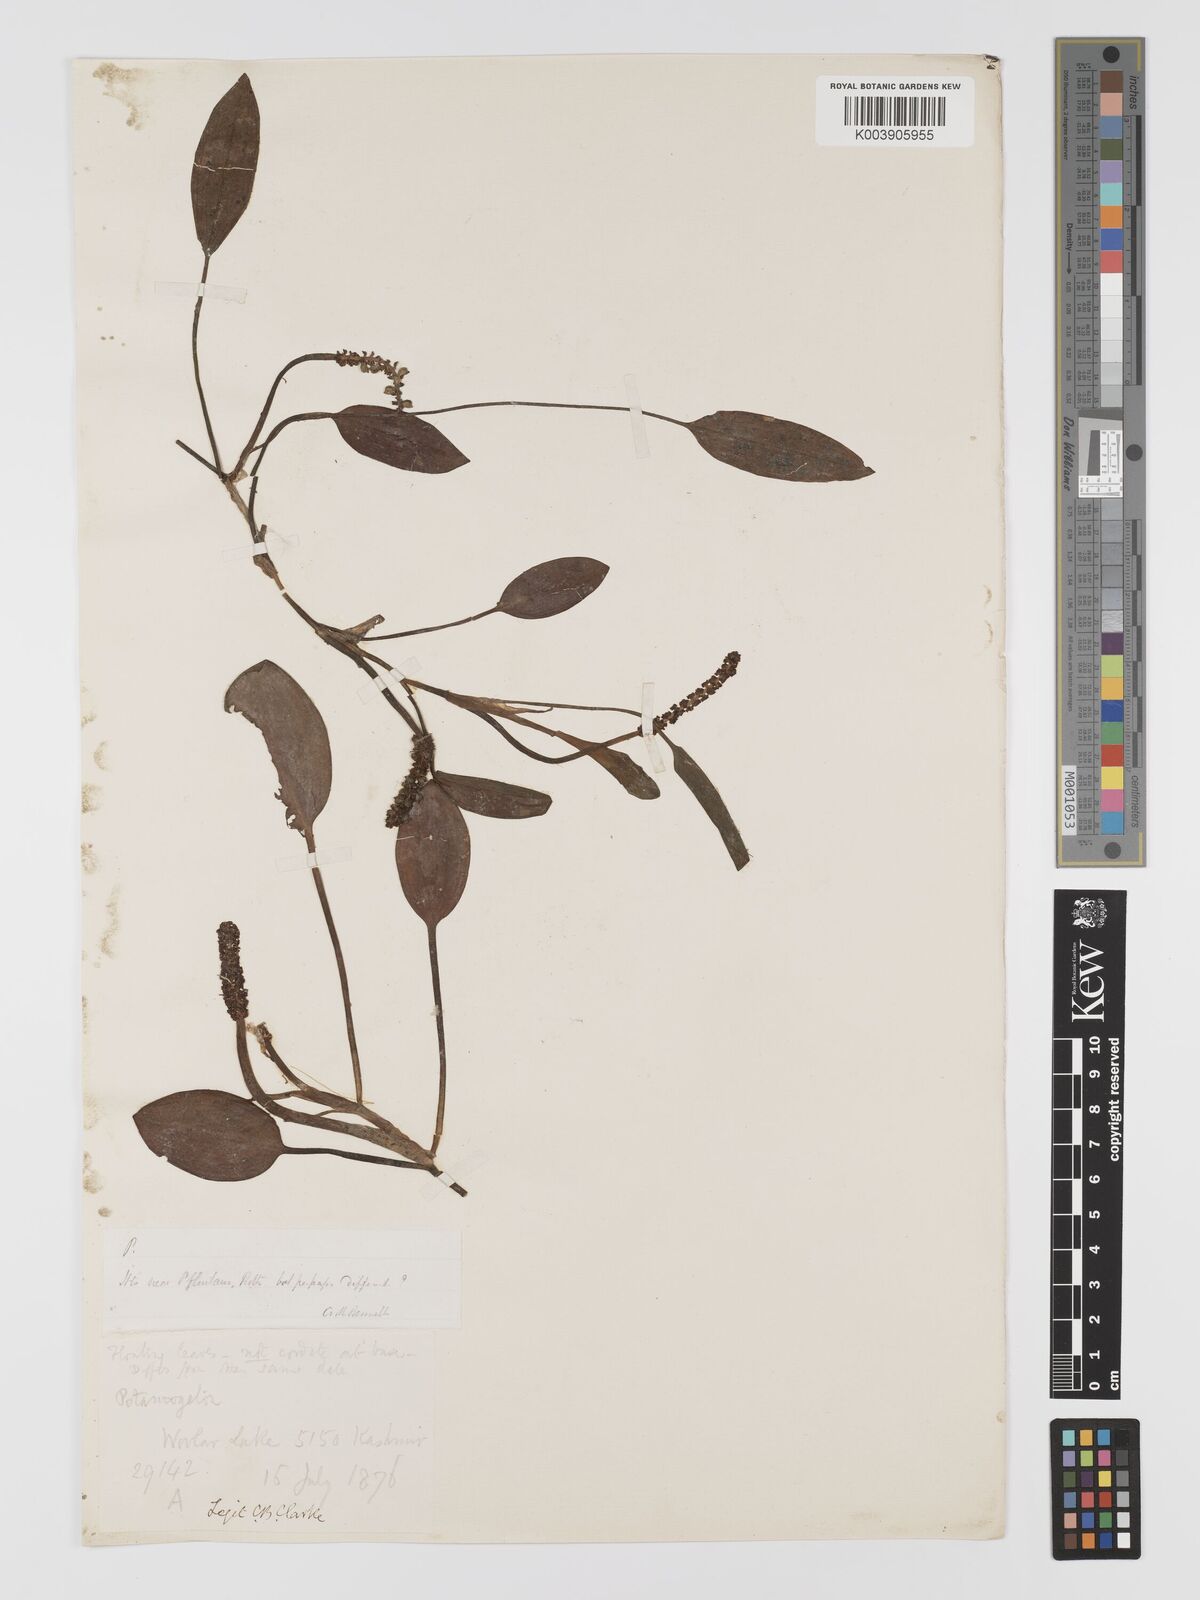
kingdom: Plantae
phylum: Tracheophyta
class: Liliopsida
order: Alismatales
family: Potamogetonaceae
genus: Potamogeton
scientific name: Potamogeton distinctus
